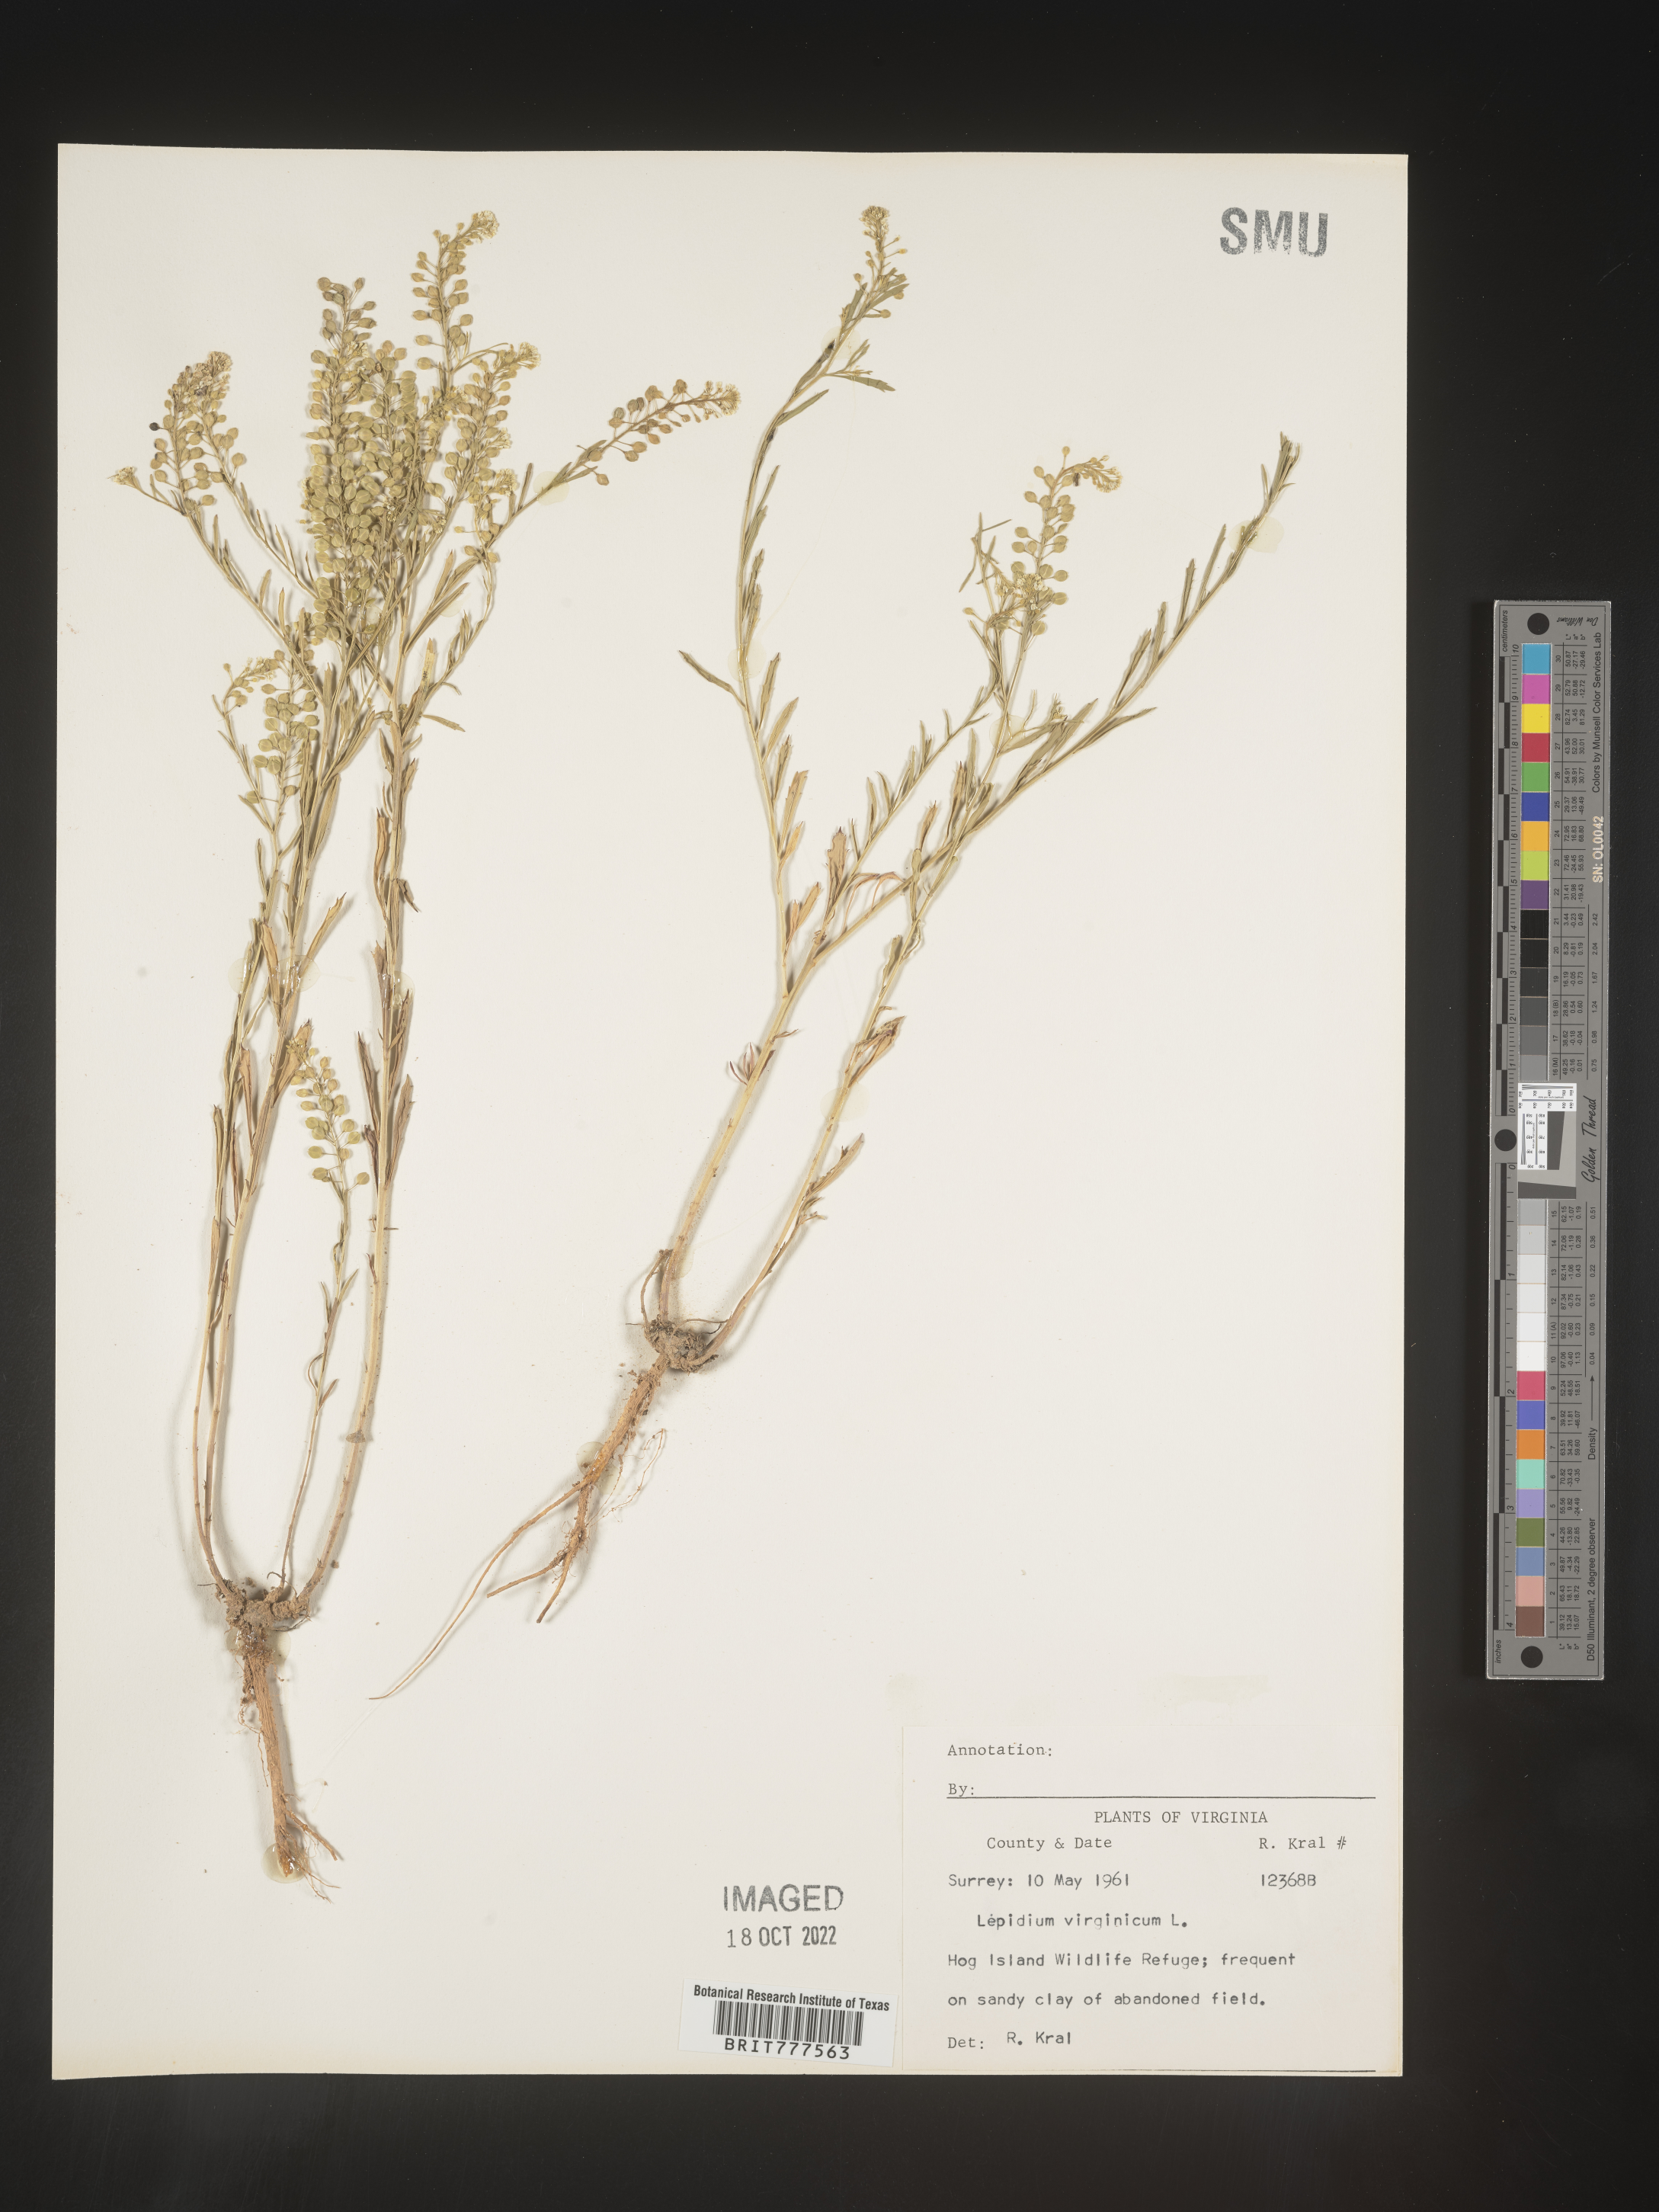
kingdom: Plantae
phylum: Tracheophyta
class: Magnoliopsida
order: Brassicales
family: Brassicaceae
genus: Lepidium
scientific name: Lepidium virginicum
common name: Least pepperwort
